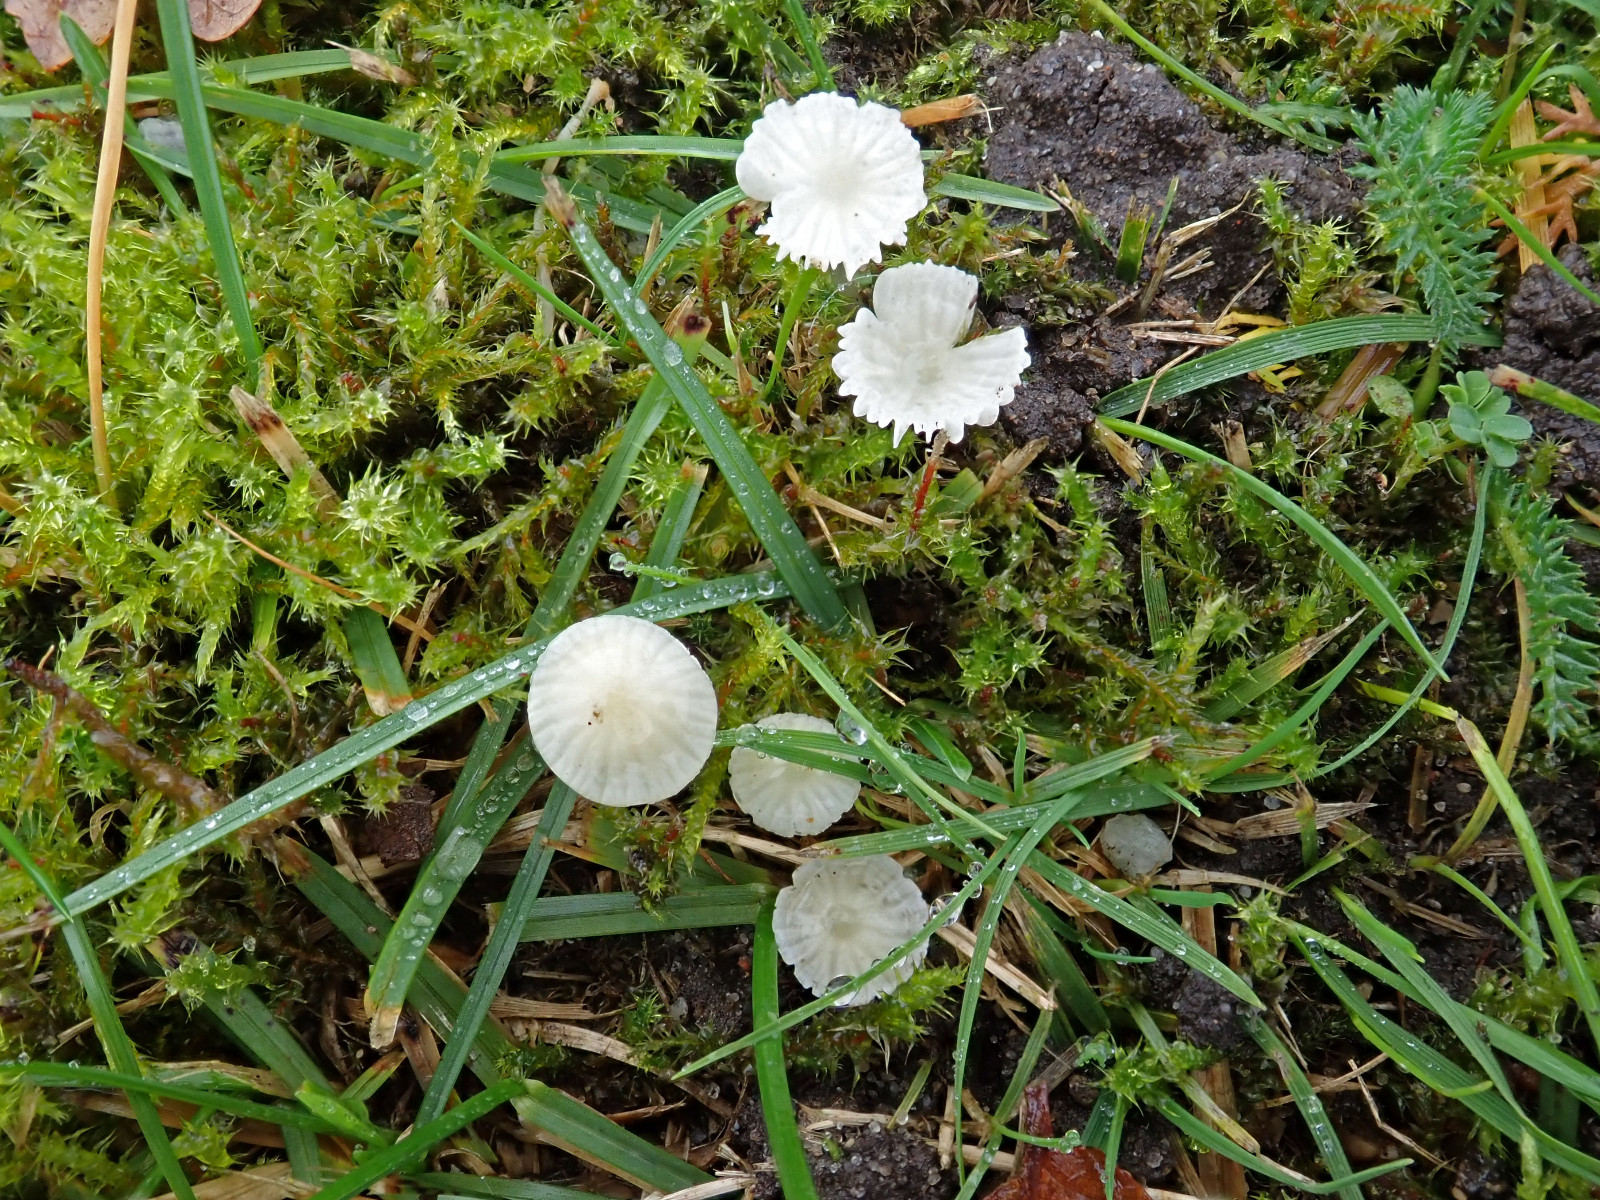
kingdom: Fungi
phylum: Basidiomycota
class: Agaricomycetes
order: Agaricales
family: Mycenaceae
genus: Atheniella
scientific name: Atheniella flavoalba
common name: gulhvid huesvamp
